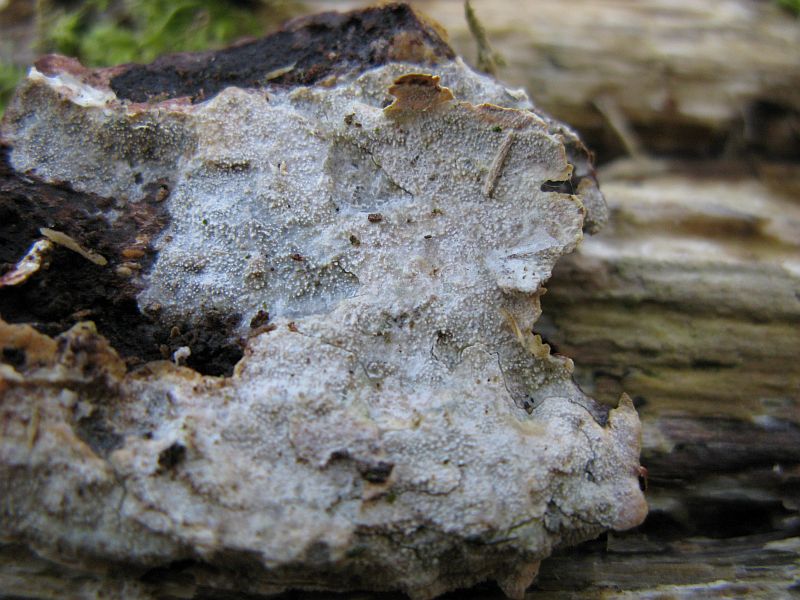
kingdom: Fungi
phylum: Basidiomycota
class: Agaricomycetes
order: Hymenochaetales
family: Rickenellaceae
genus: Resinicium
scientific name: Resinicium bicolor
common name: almindelig vokstand
